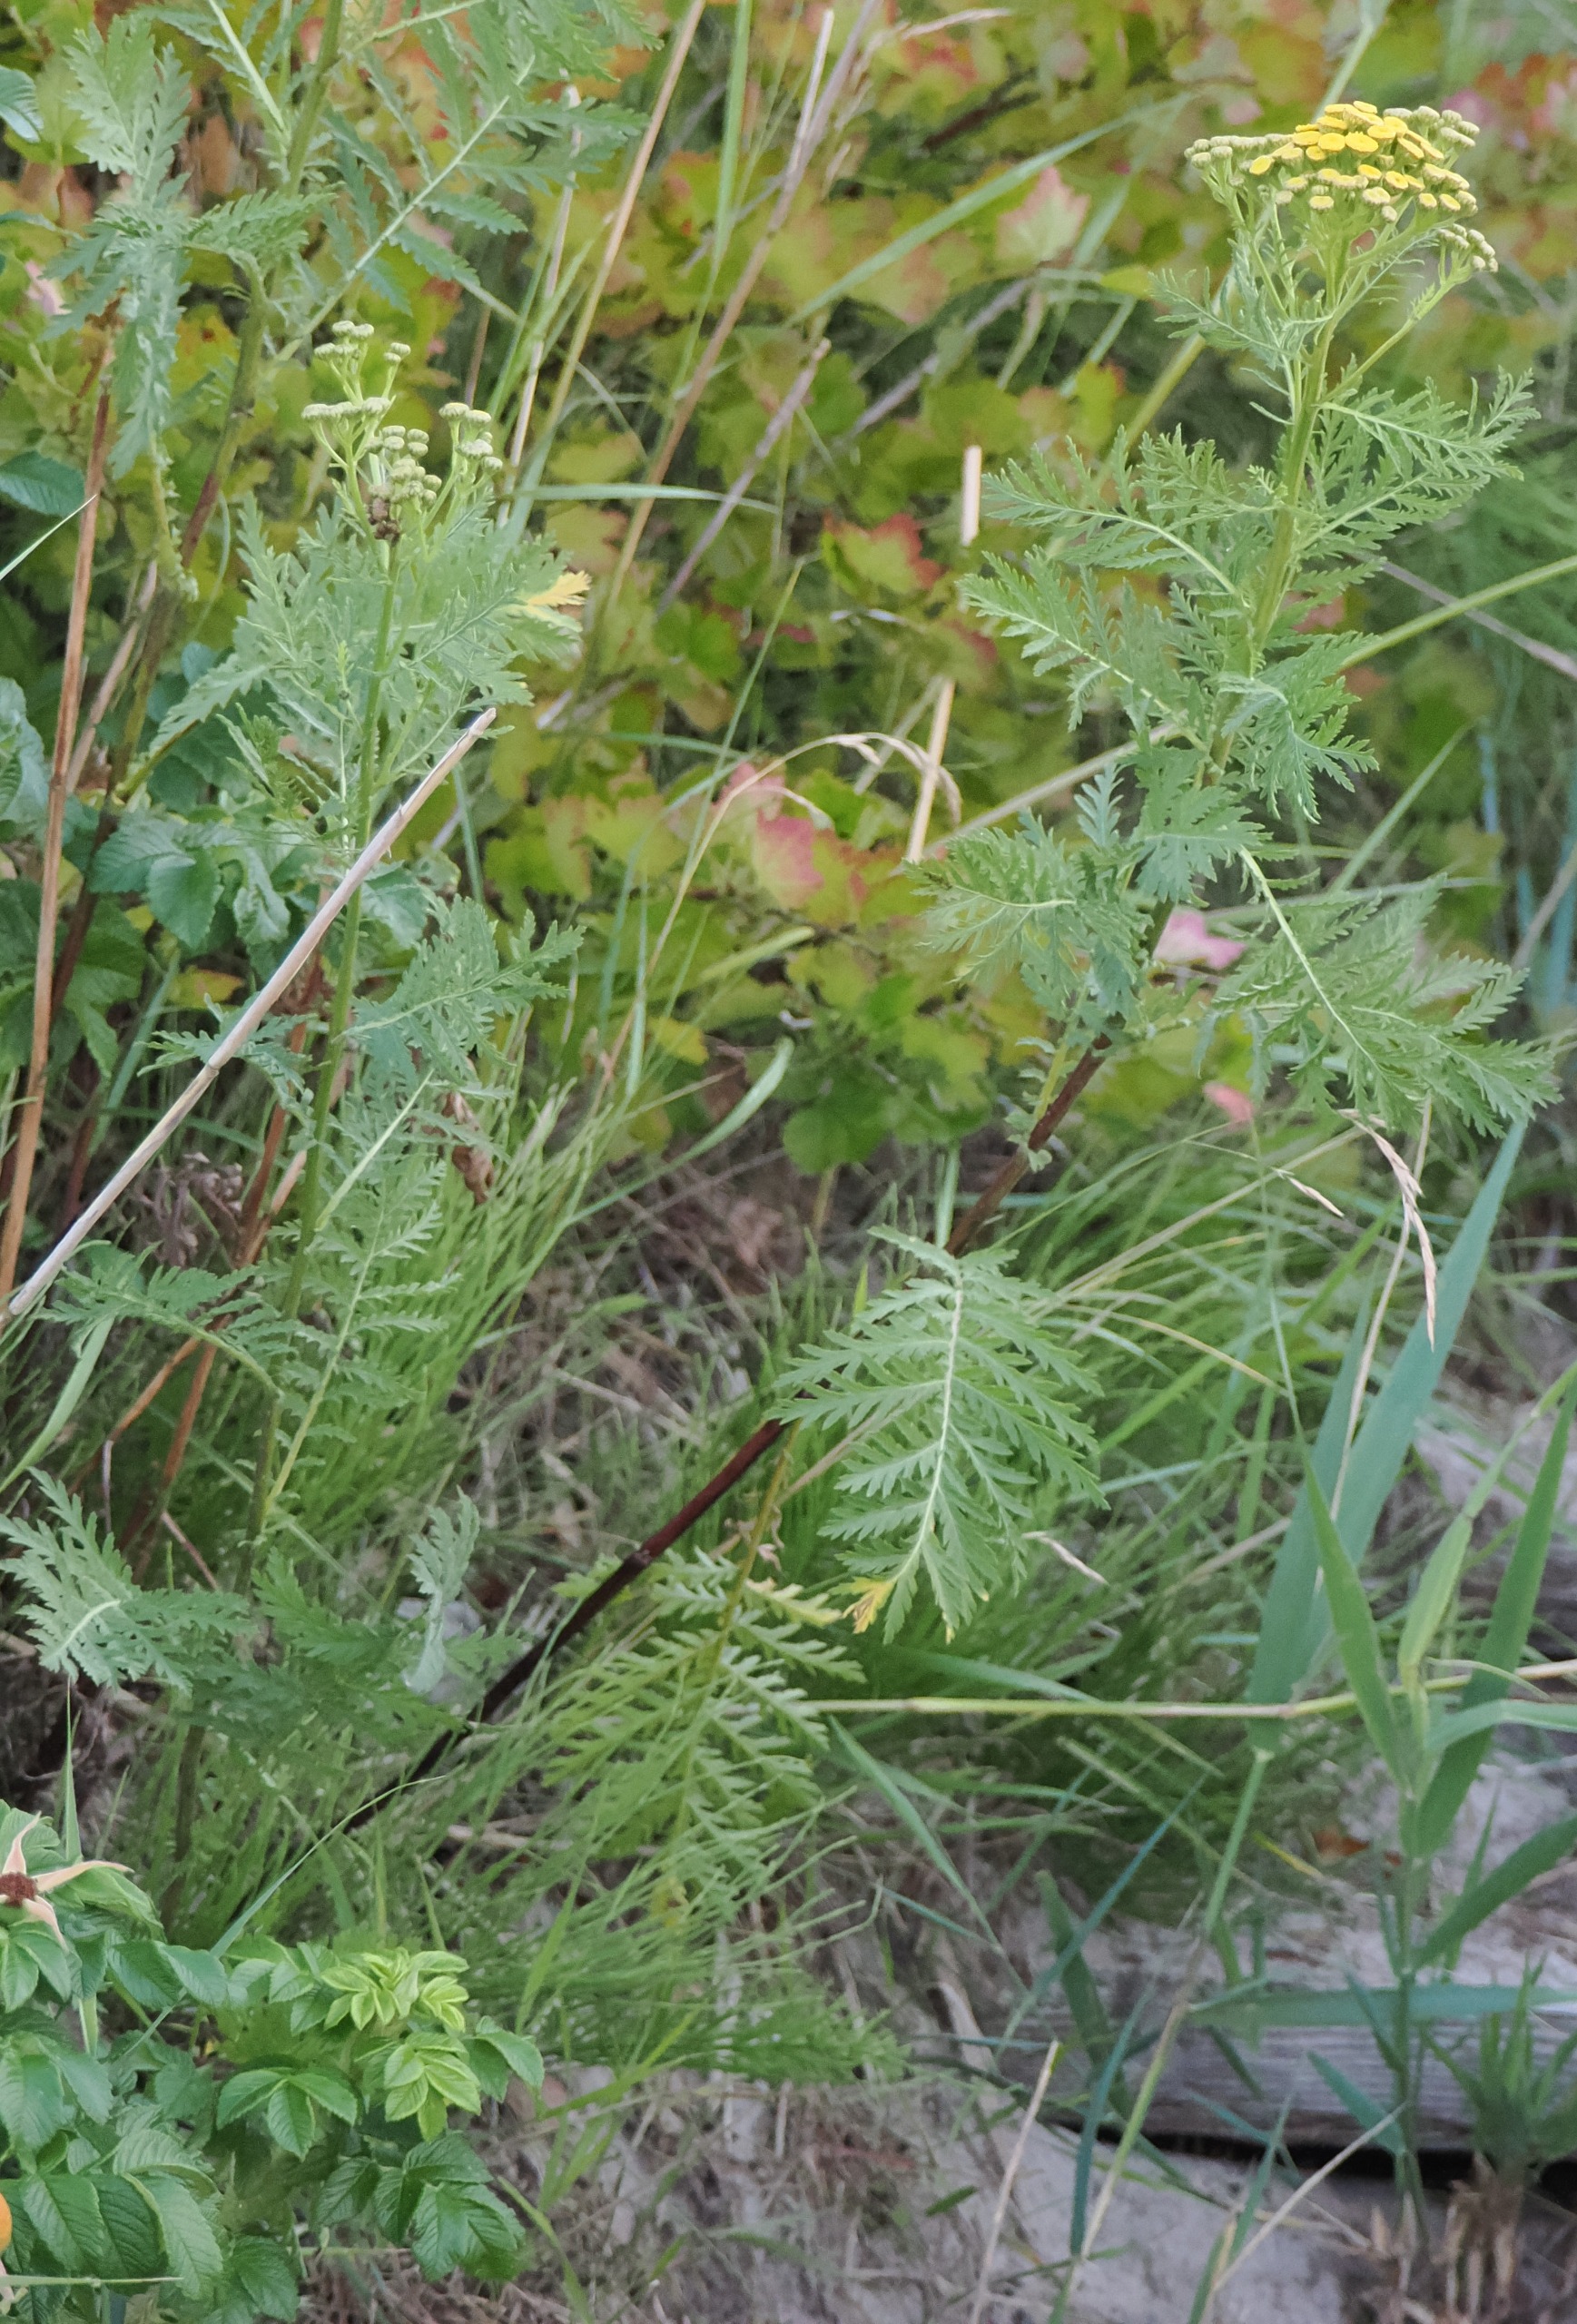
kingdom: Plantae
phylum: Tracheophyta
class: Magnoliopsida
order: Asterales
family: Asteraceae
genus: Tanacetum
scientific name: Tanacetum vulgare
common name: Rejnfan
